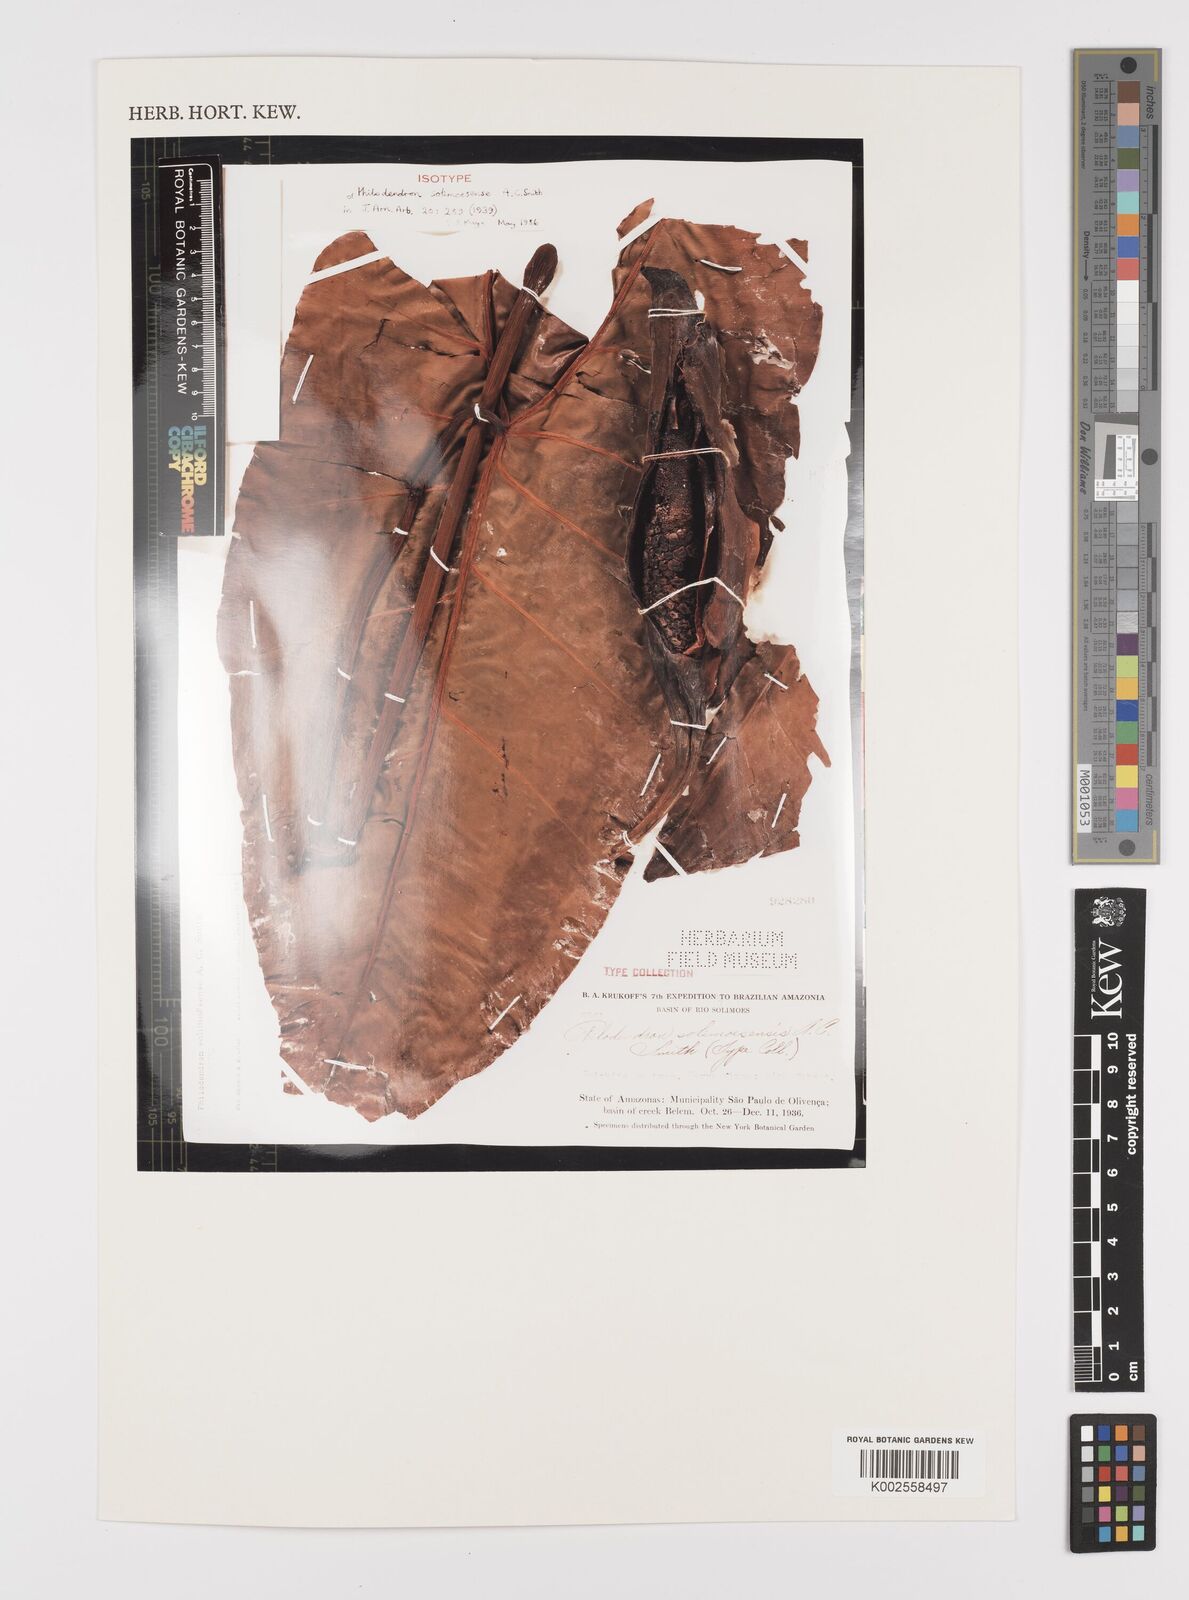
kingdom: Plantae
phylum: Tracheophyta
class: Liliopsida
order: Alismatales
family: Araceae
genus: Thaumatophyllum
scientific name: Thaumatophyllum solimoesense
